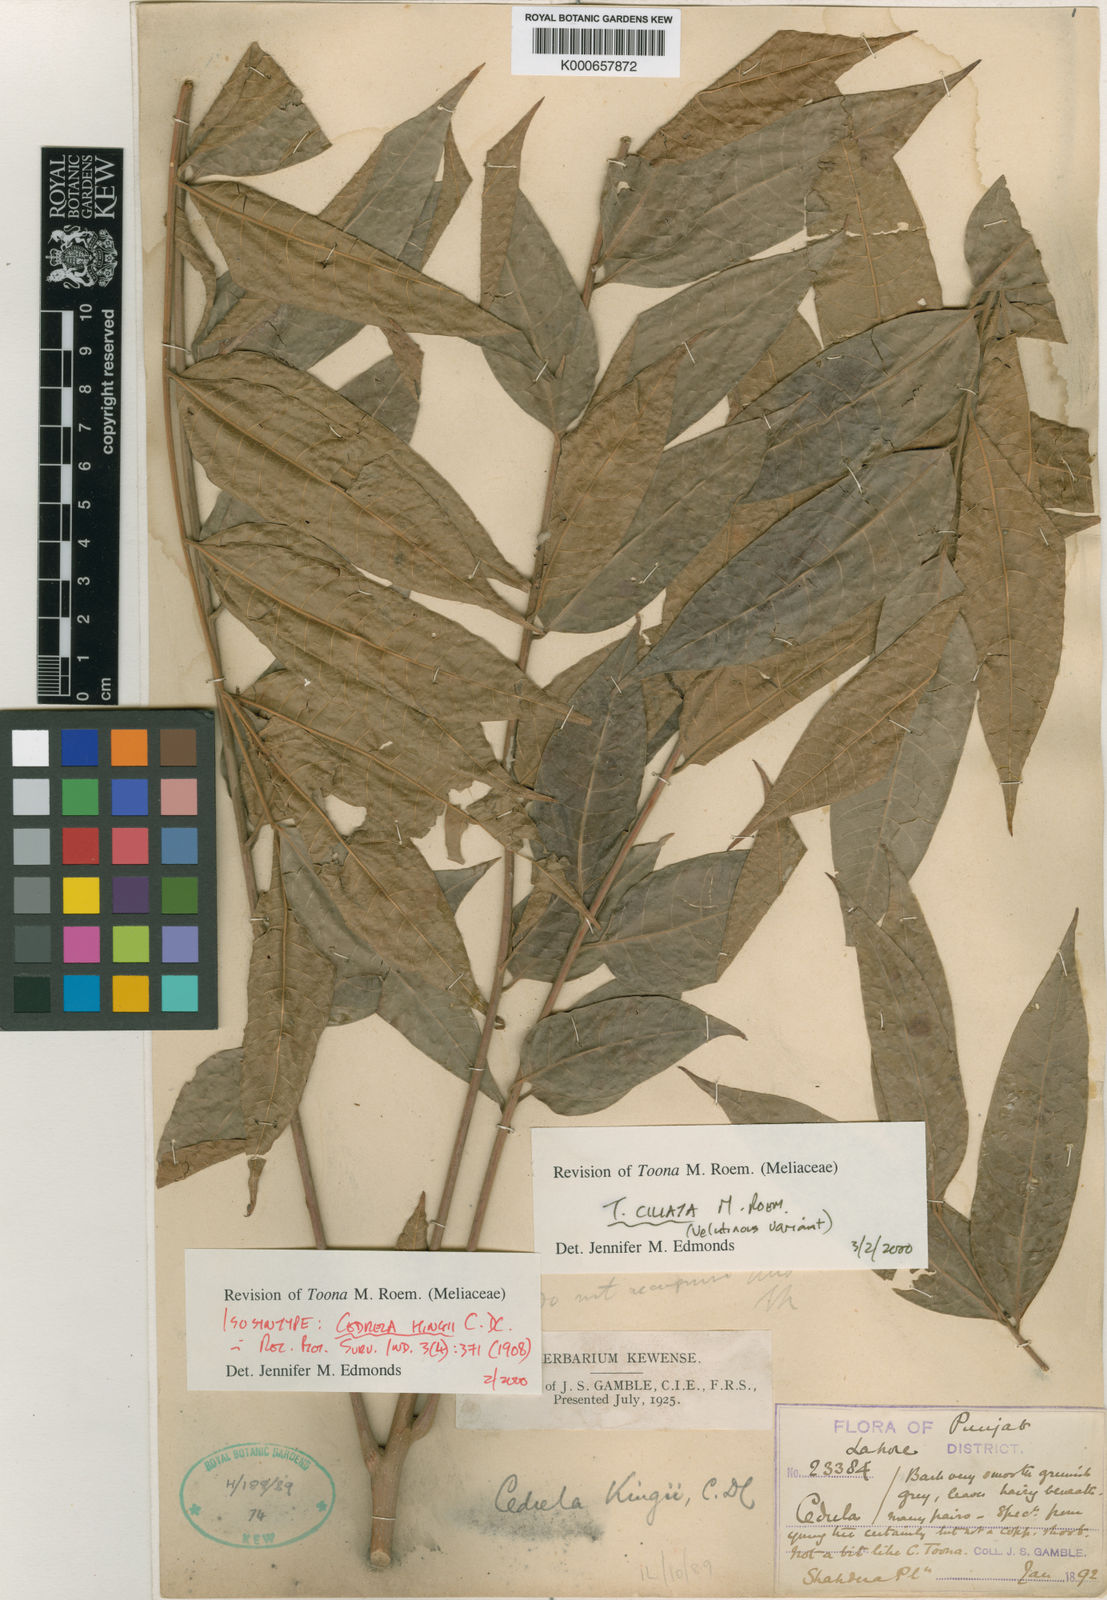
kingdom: Plantae
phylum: Tracheophyta
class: Magnoliopsida
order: Sapindales
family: Meliaceae
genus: Toona
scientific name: Toona ciliata
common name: Australian redcedar
